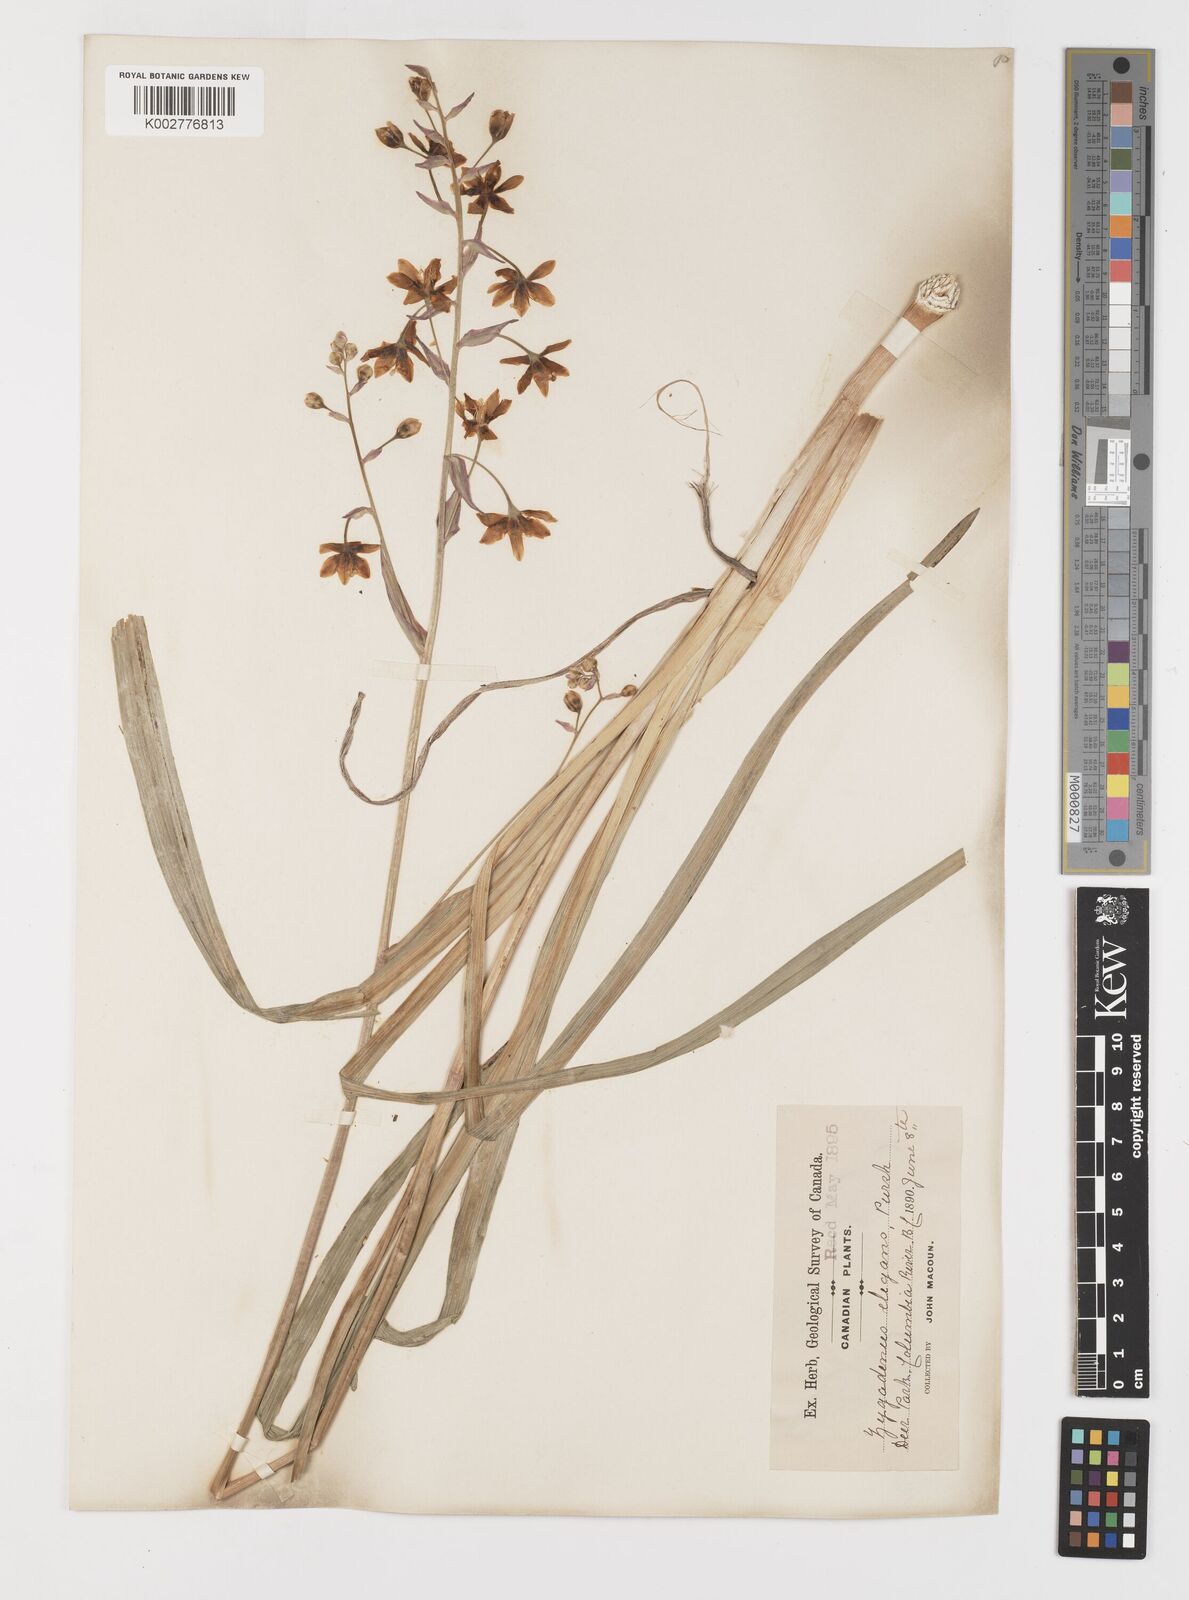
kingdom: Plantae
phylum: Tracheophyta
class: Liliopsida
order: Liliales
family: Melanthiaceae
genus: Anticlea
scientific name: Anticlea elegans
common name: Mountain death camas
